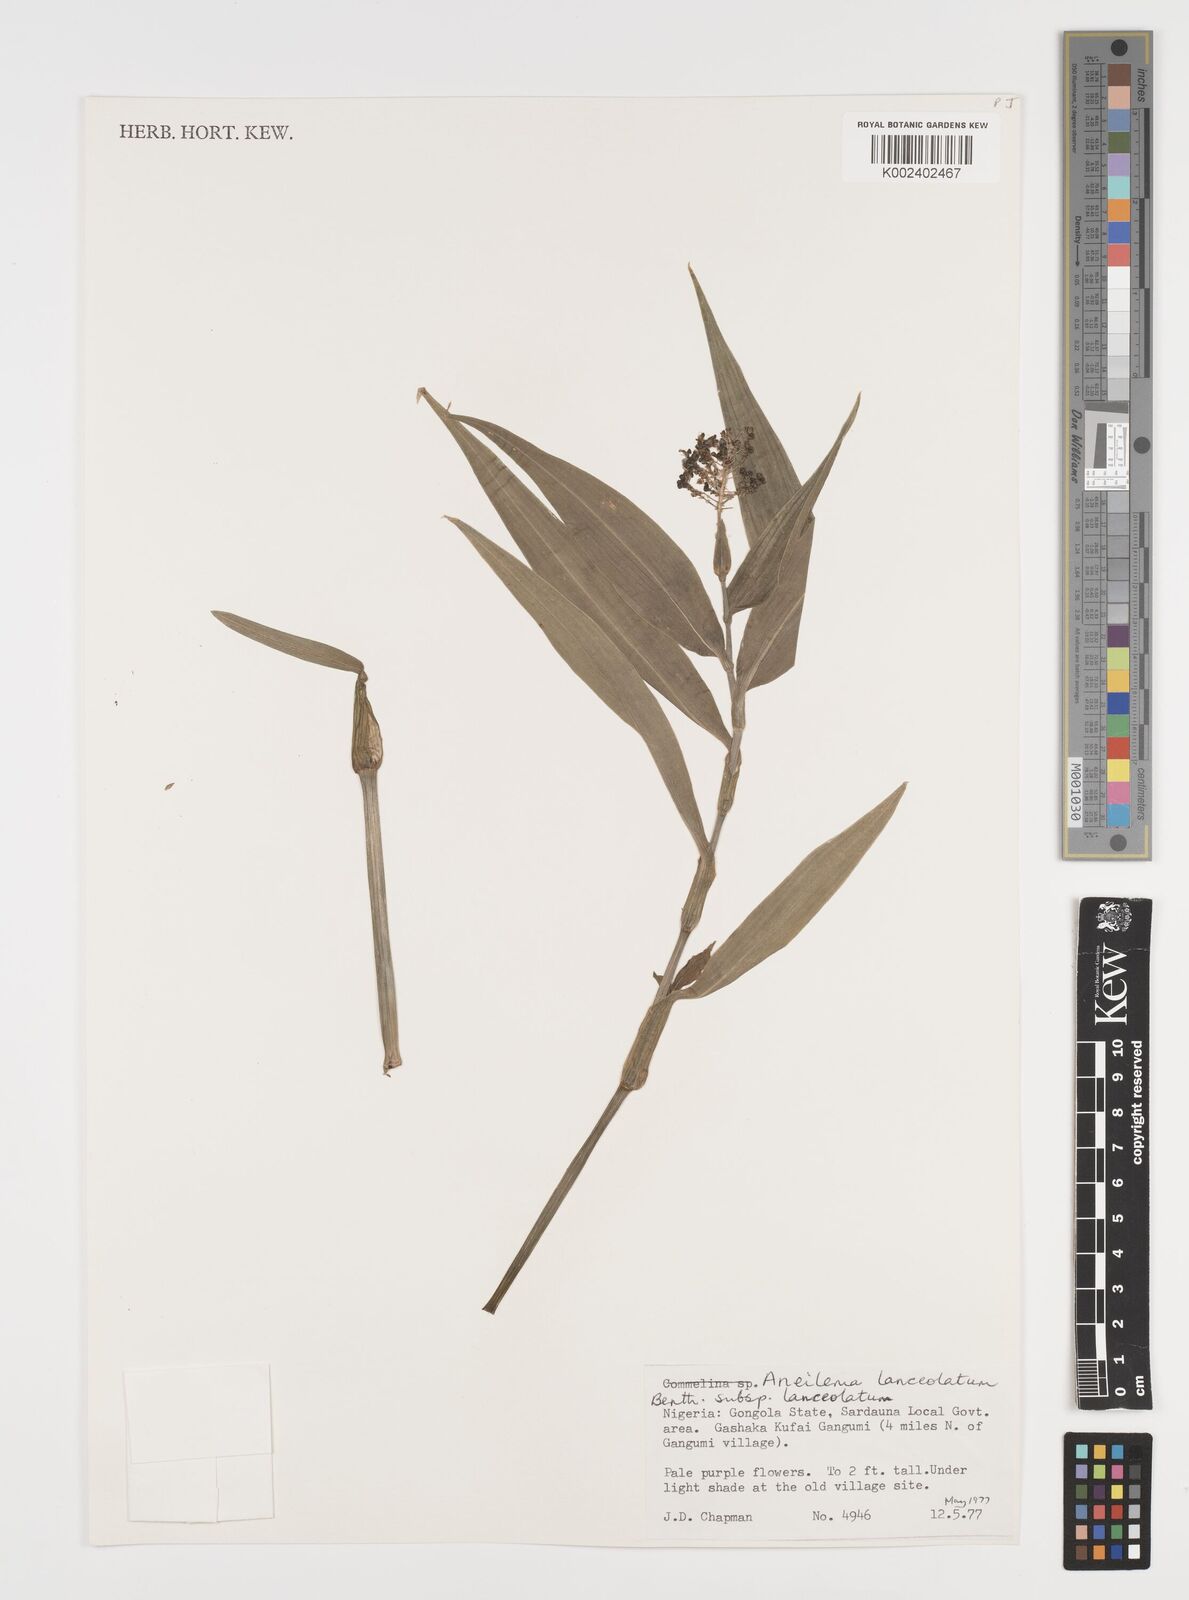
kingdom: Plantae
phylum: Tracheophyta
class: Liliopsida
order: Commelinales
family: Commelinaceae
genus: Murdannia
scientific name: Murdannia spirata
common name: Asiatic dewflower
